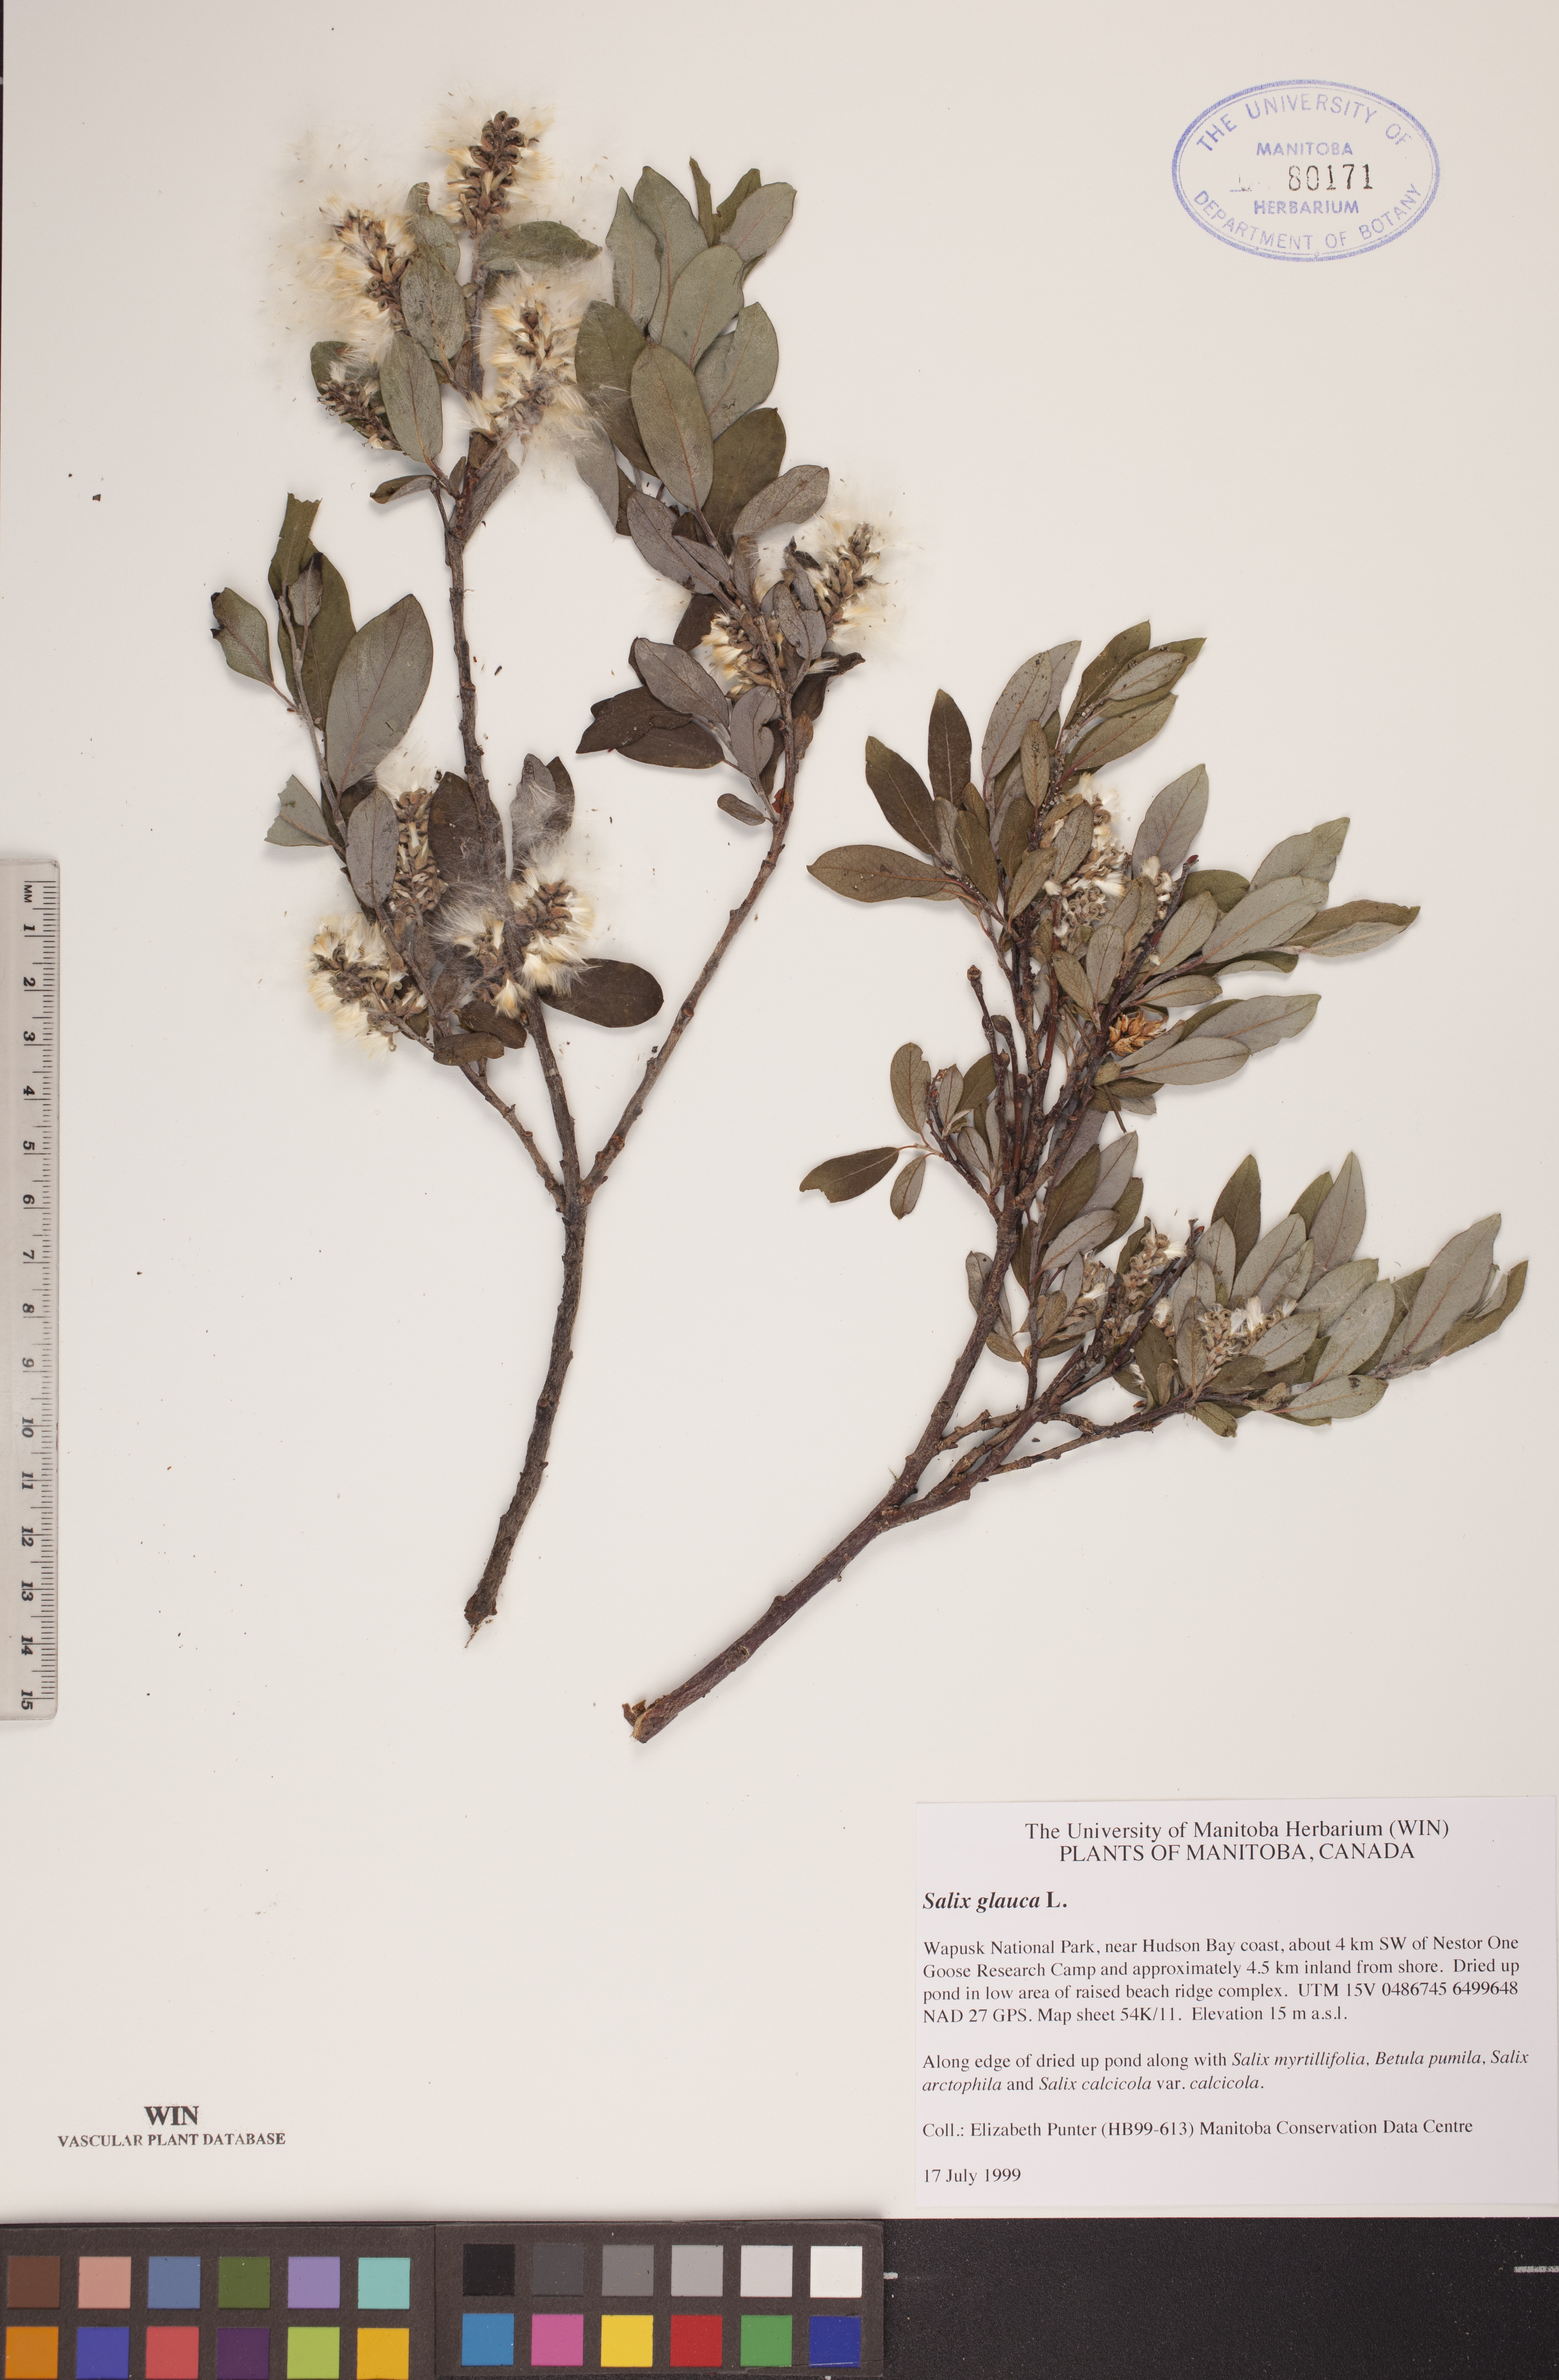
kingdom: Plantae
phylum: Tracheophyta
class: Magnoliopsida
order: Malpighiales
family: Salicaceae
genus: Salix
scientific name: Salix glauca
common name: Glaucous willow
